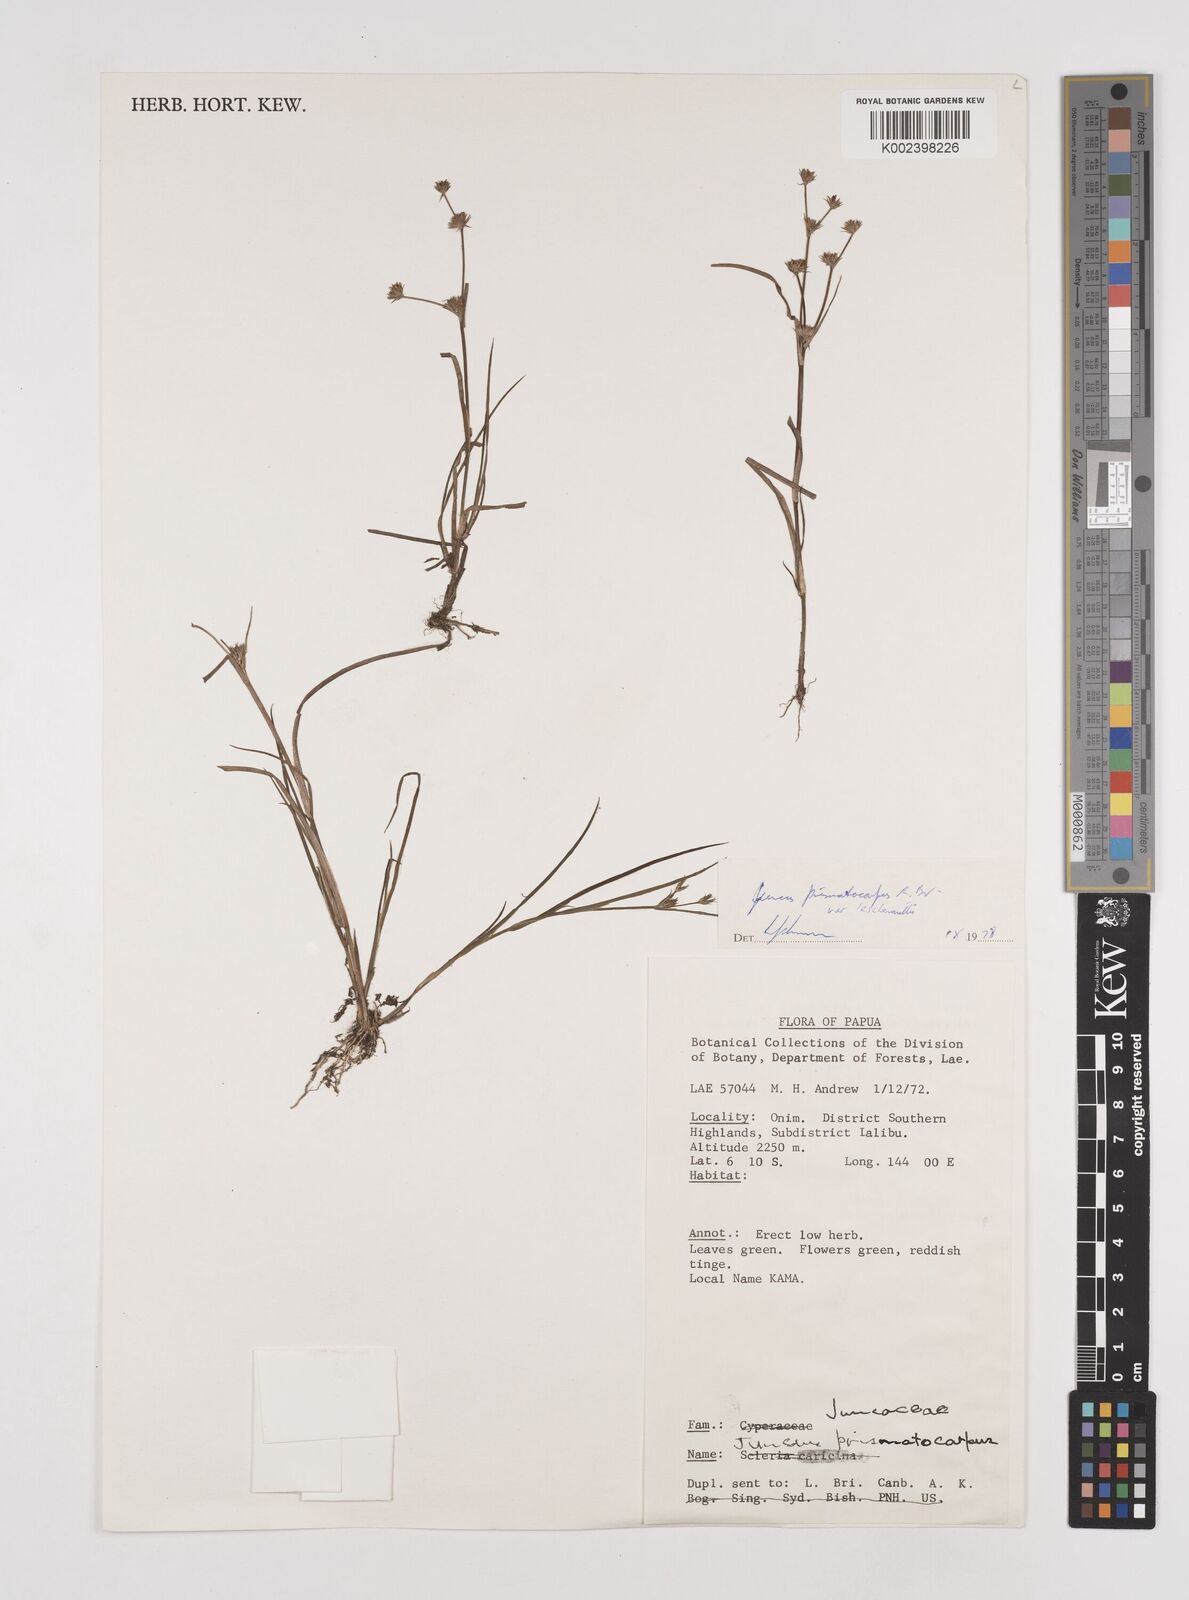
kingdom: Plantae
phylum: Tracheophyta
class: Liliopsida
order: Poales
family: Juncaceae
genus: Juncus
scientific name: Juncus prismatocarpus
